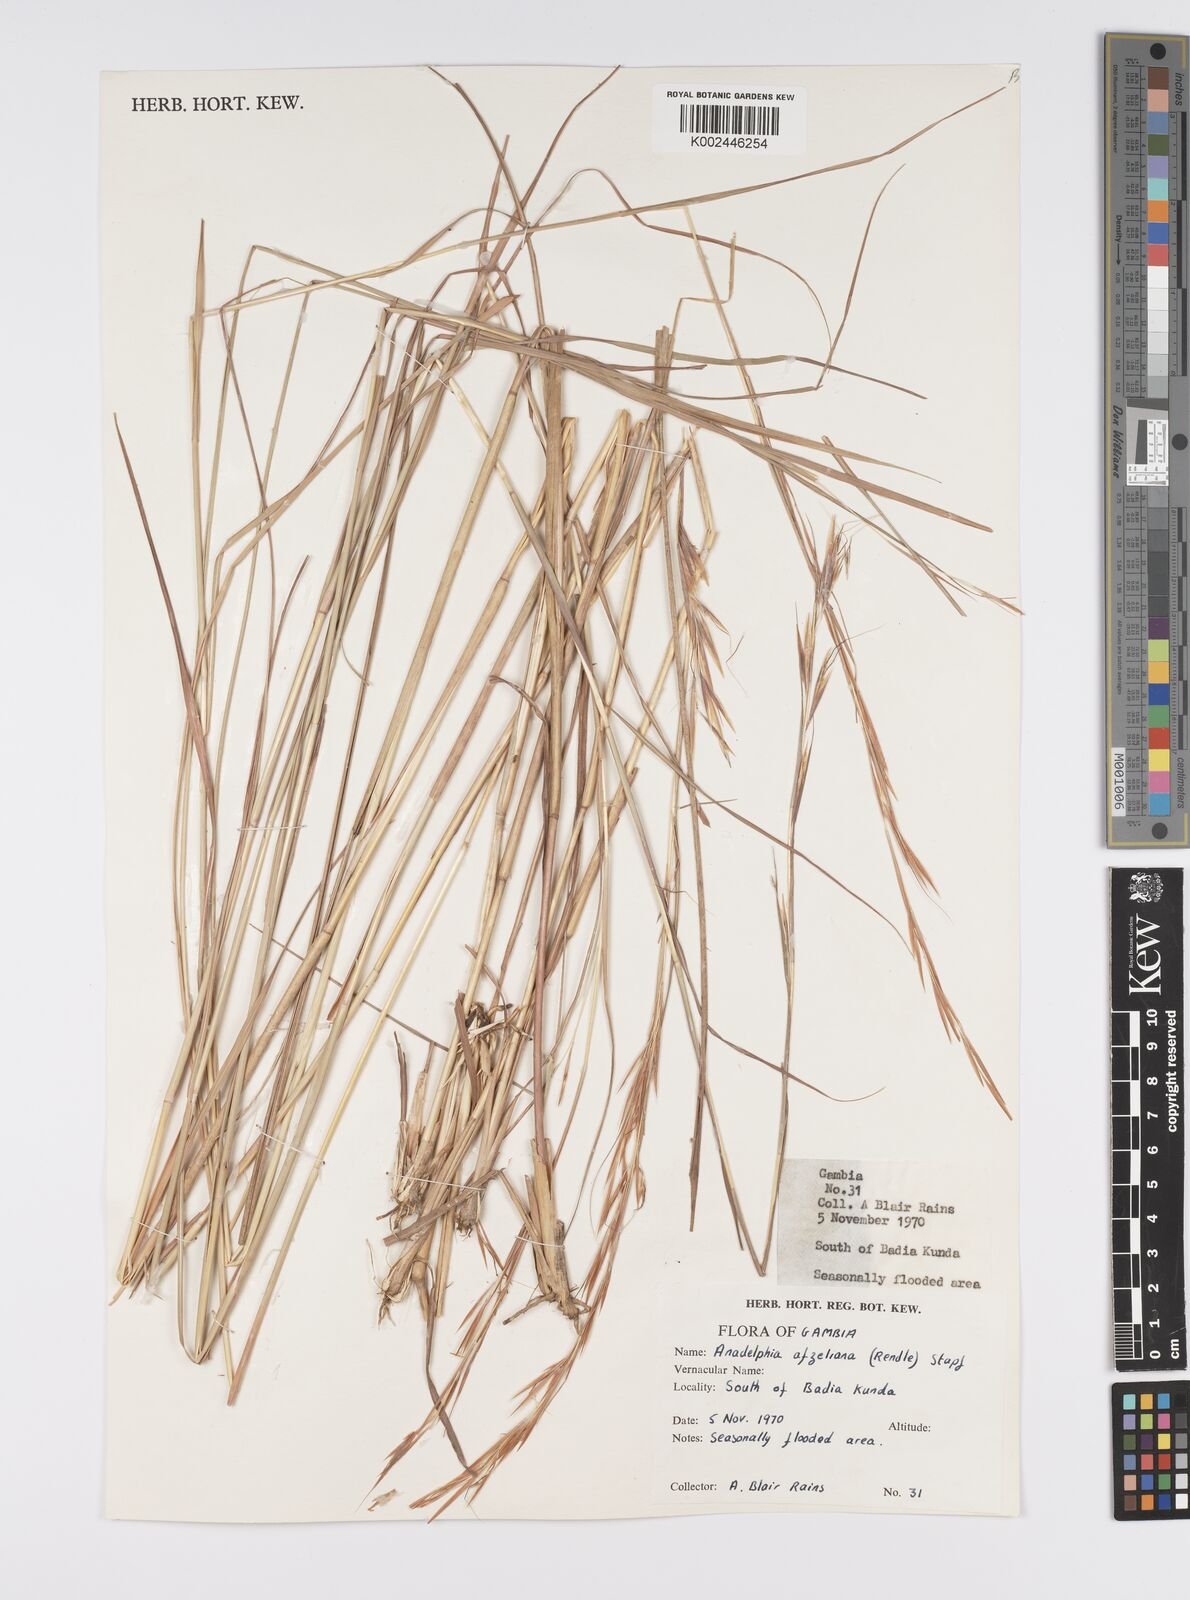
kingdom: Plantae
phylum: Tracheophyta
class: Liliopsida
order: Poales
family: Poaceae
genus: Anadelphia
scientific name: Anadelphia afzeliana
